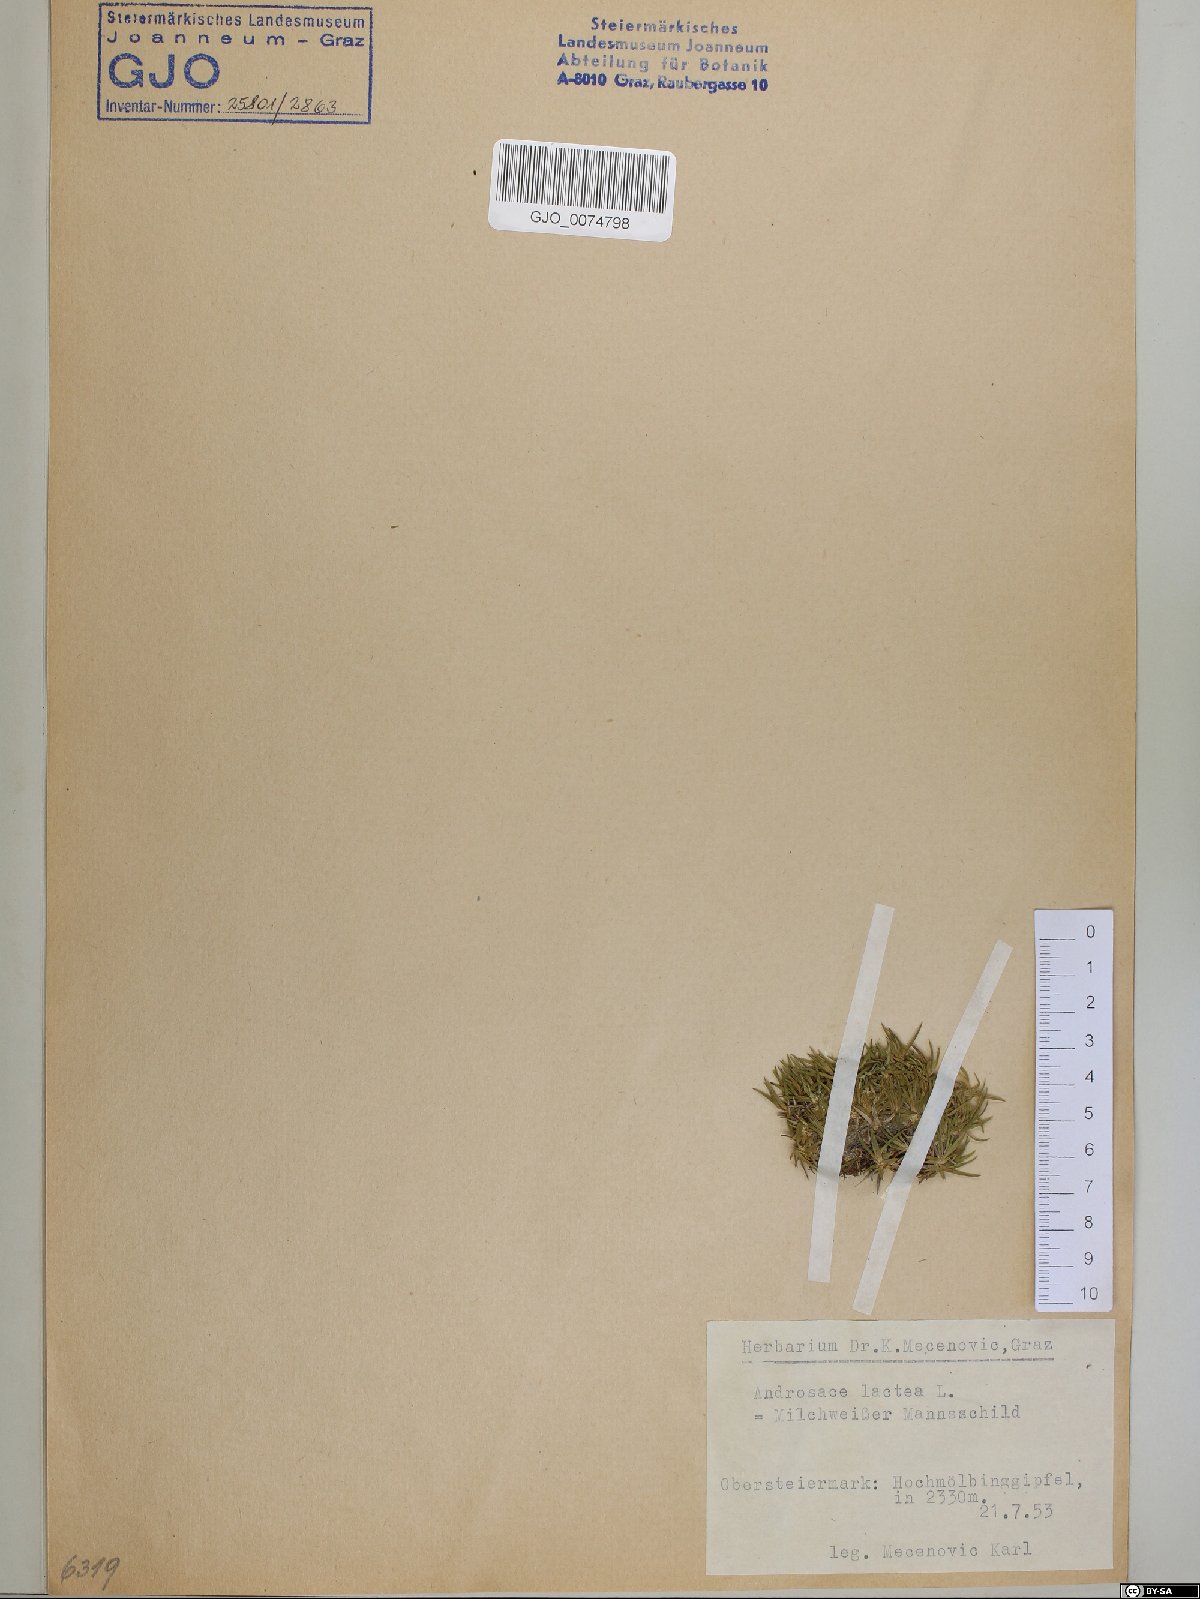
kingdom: Plantae
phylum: Tracheophyta
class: Magnoliopsida
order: Ericales
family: Primulaceae
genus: Androsace
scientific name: Androsace lactea
